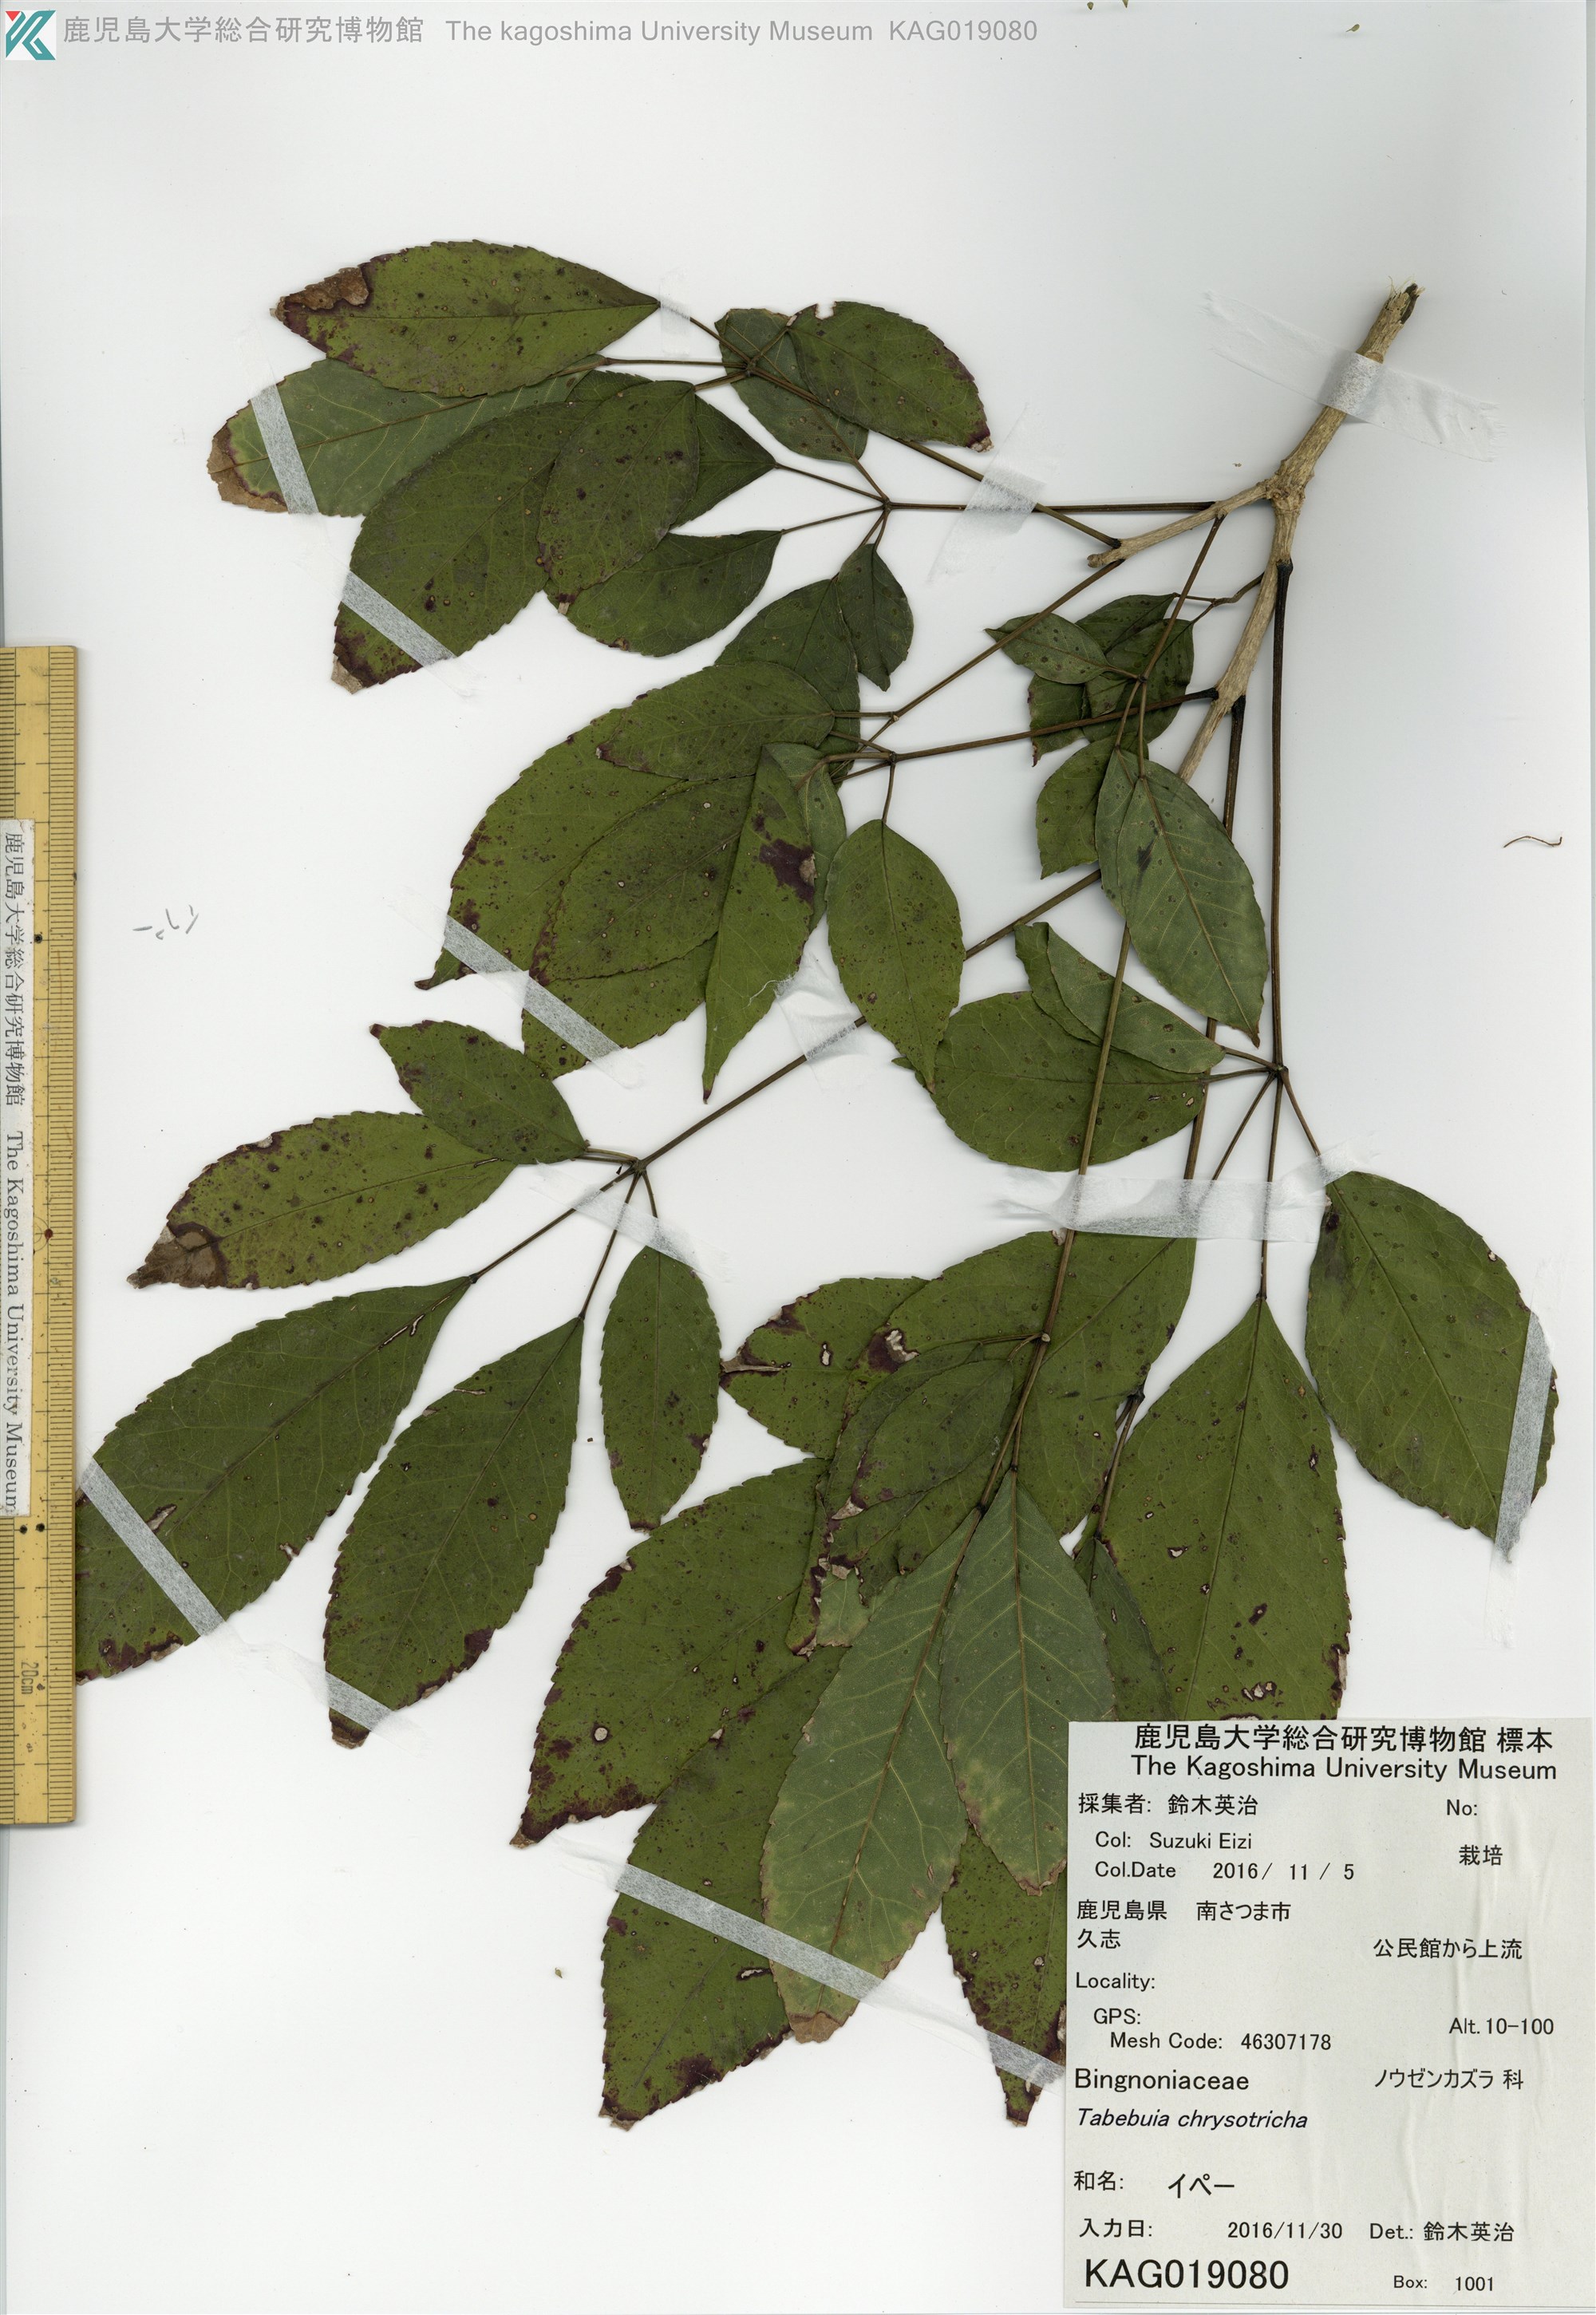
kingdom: Plantae
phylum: Tracheophyta
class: Magnoliopsida
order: Lamiales
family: Bignoniaceae
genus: Handroanthus
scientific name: Handroanthus impetiginosum
